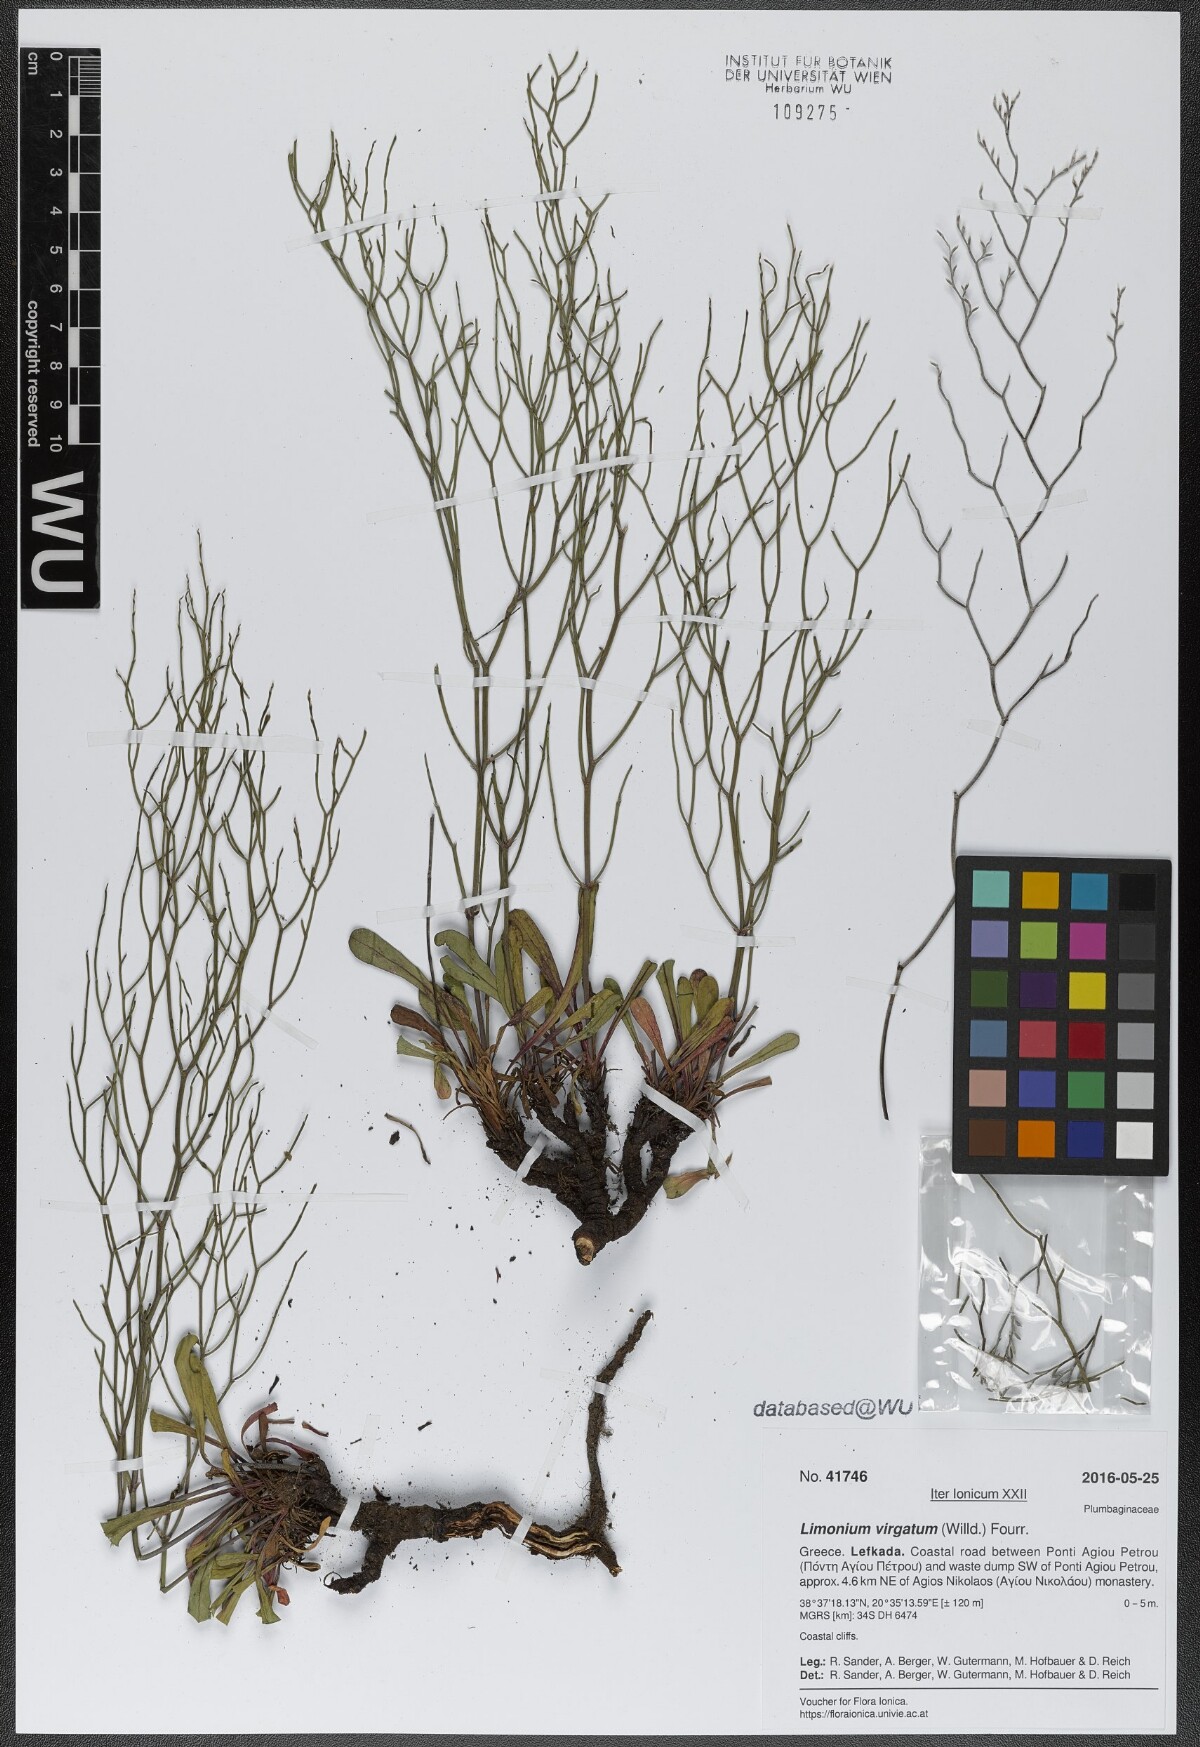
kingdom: Plantae
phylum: Tracheophyta
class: Magnoliopsida
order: Caryophyllales
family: Plumbaginaceae
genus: Limonium
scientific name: Limonium virgatum
